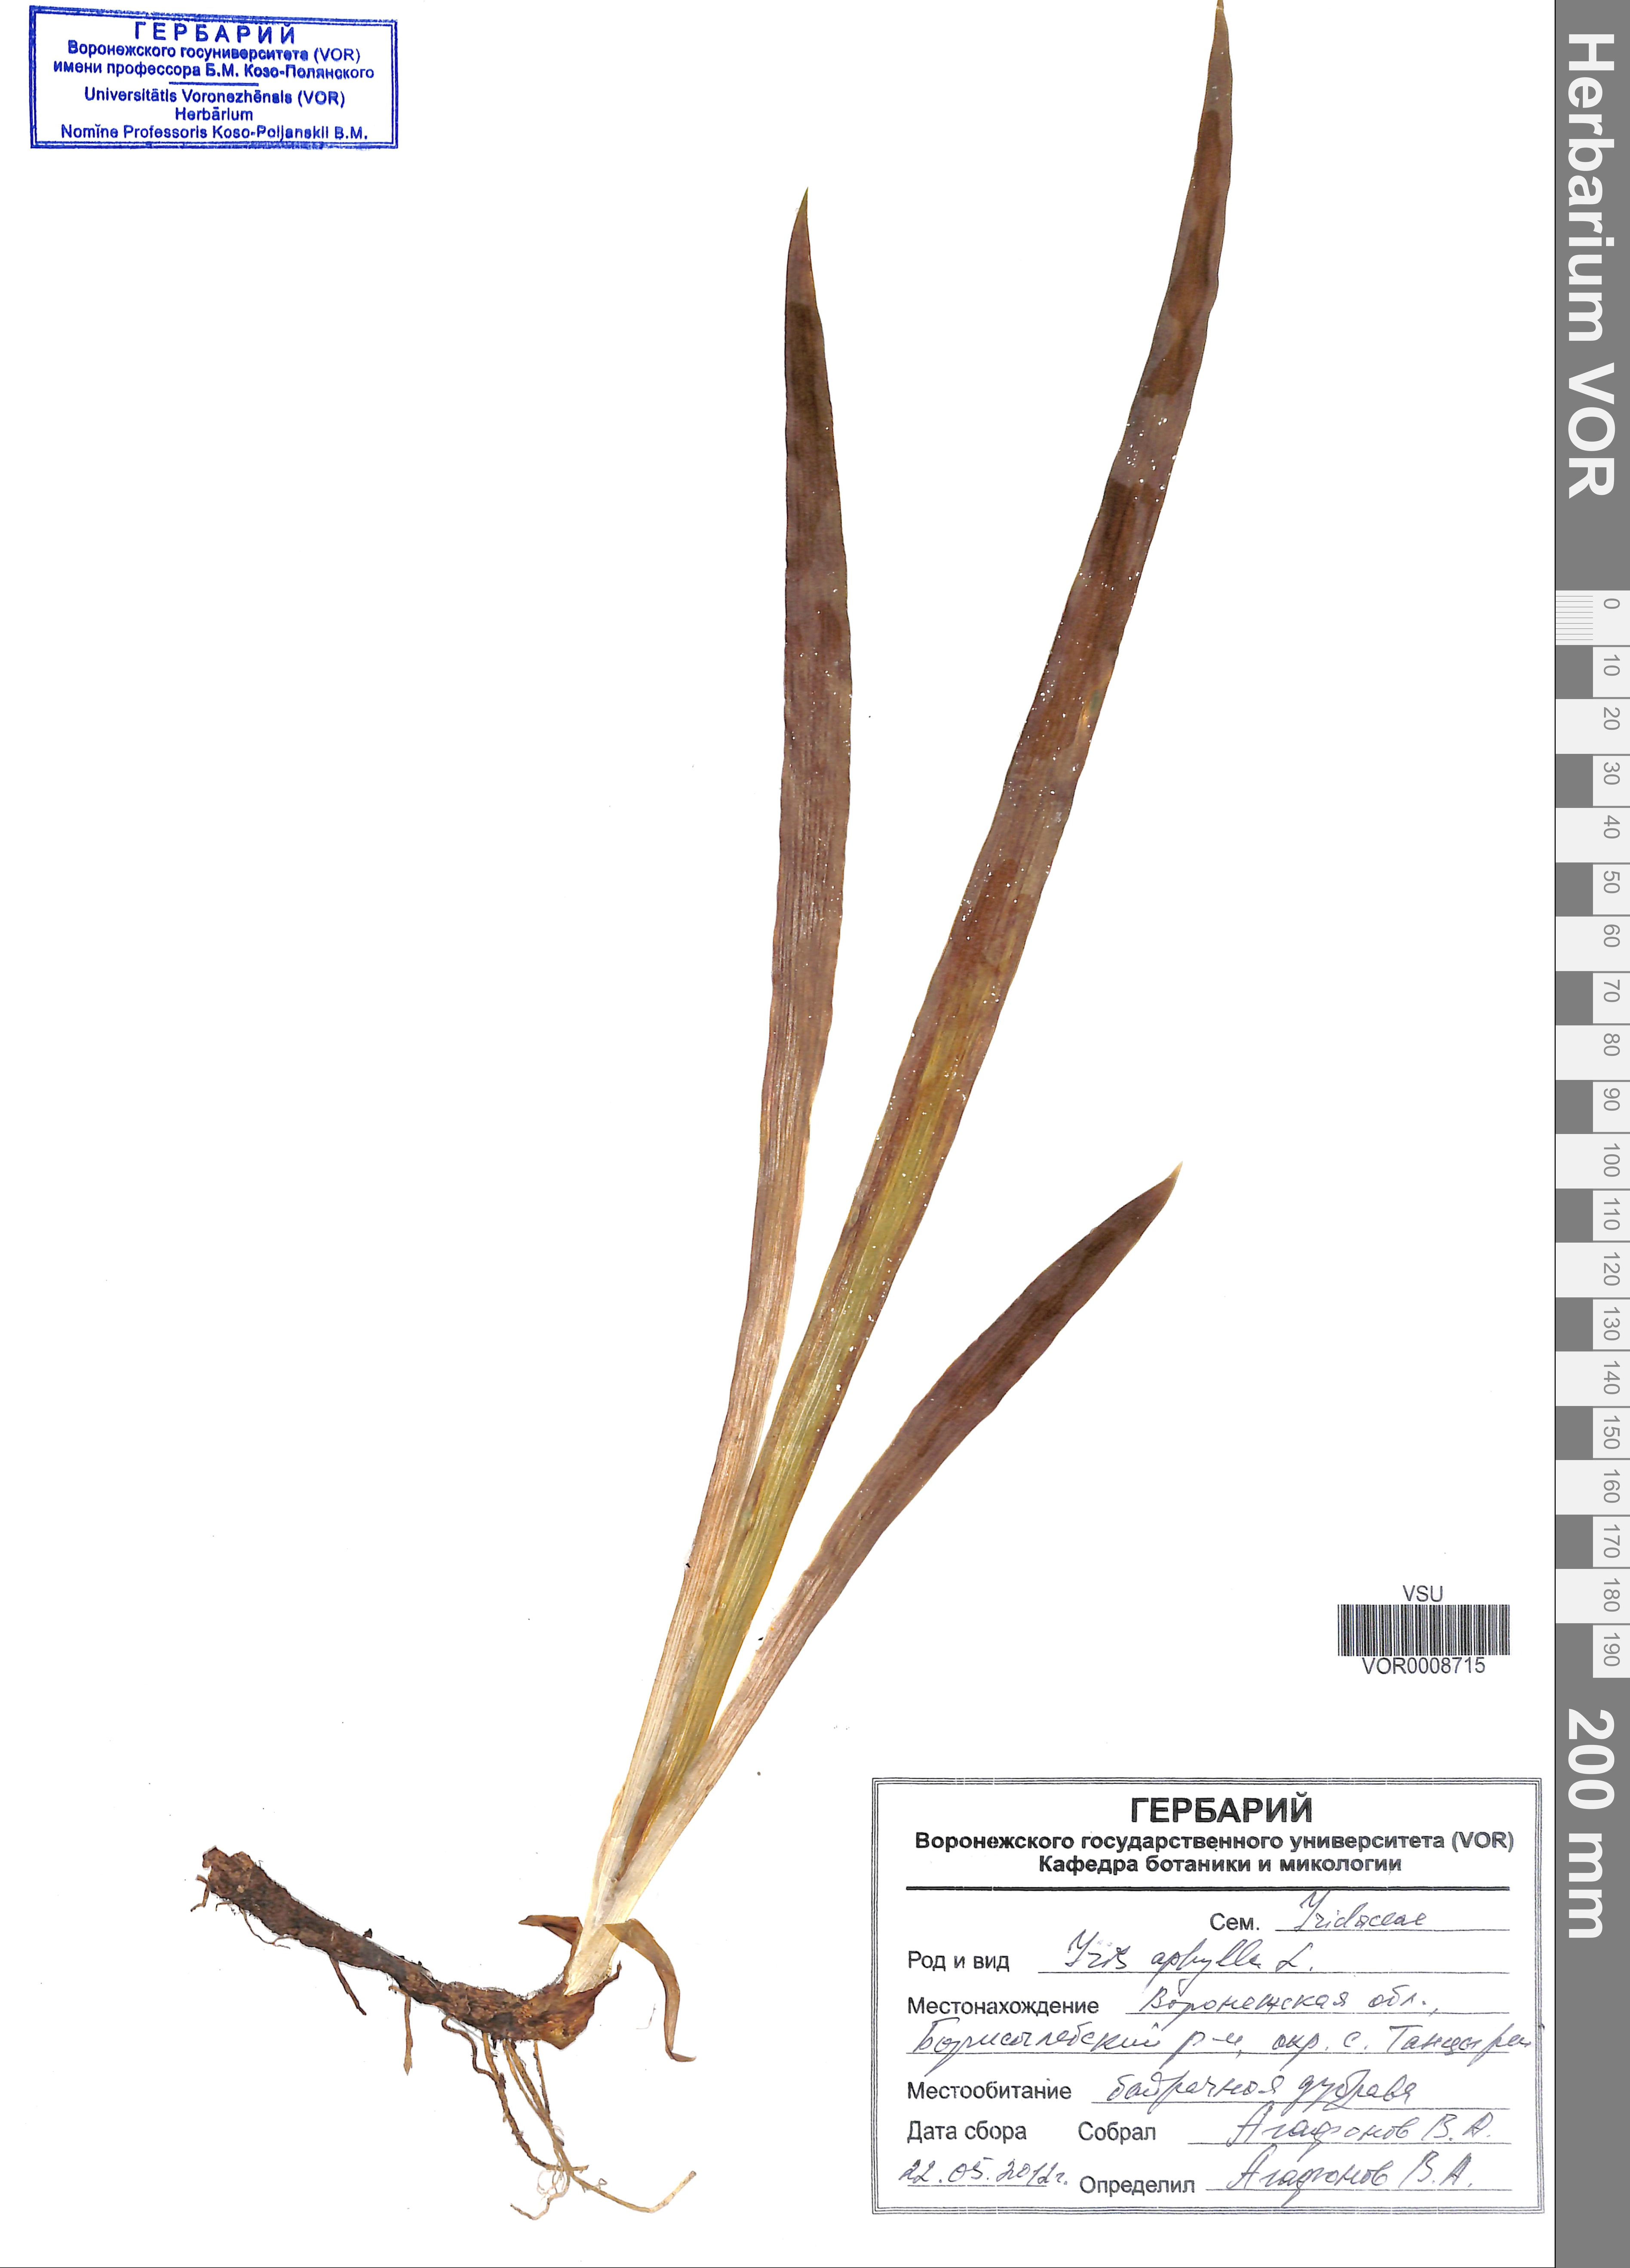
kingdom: Plantae
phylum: Tracheophyta
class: Liliopsida
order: Asparagales
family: Iridaceae
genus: Iris
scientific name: Iris aphylla
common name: Stool iris
